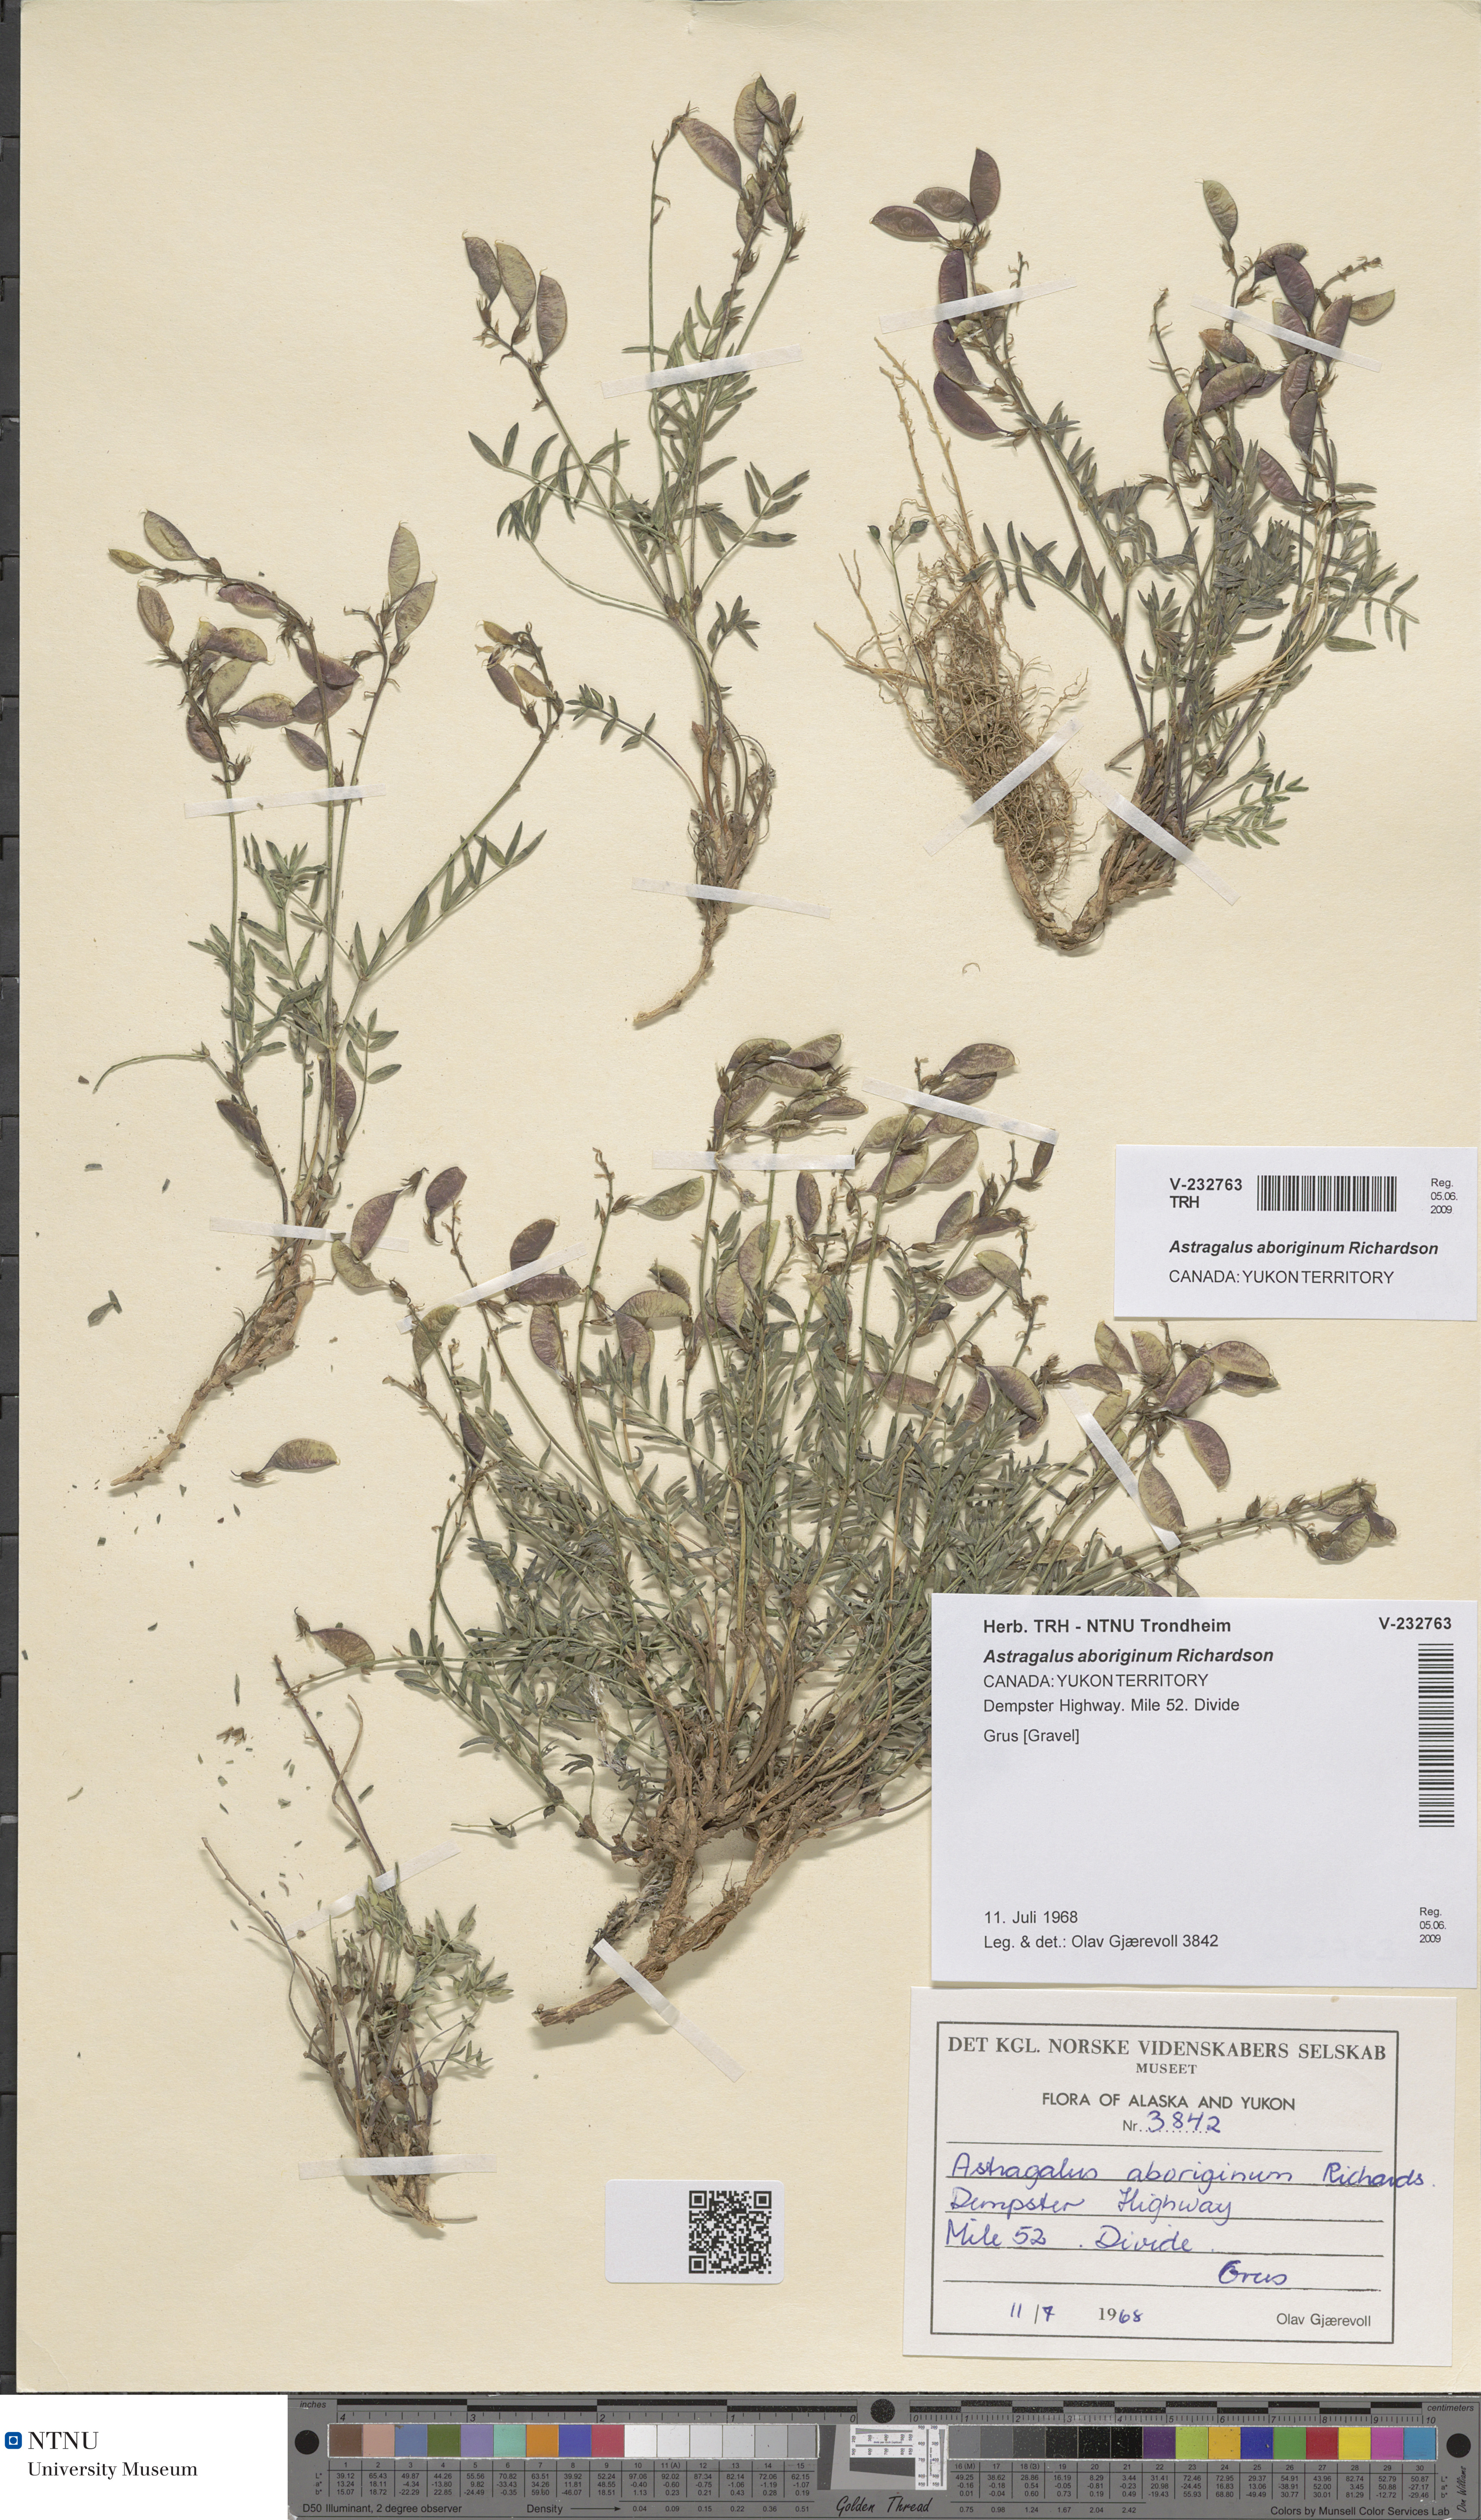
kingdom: Plantae
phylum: Tracheophyta
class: Magnoliopsida
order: Fabales
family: Fabaceae
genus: Astragalus
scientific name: Astragalus aboriginum
